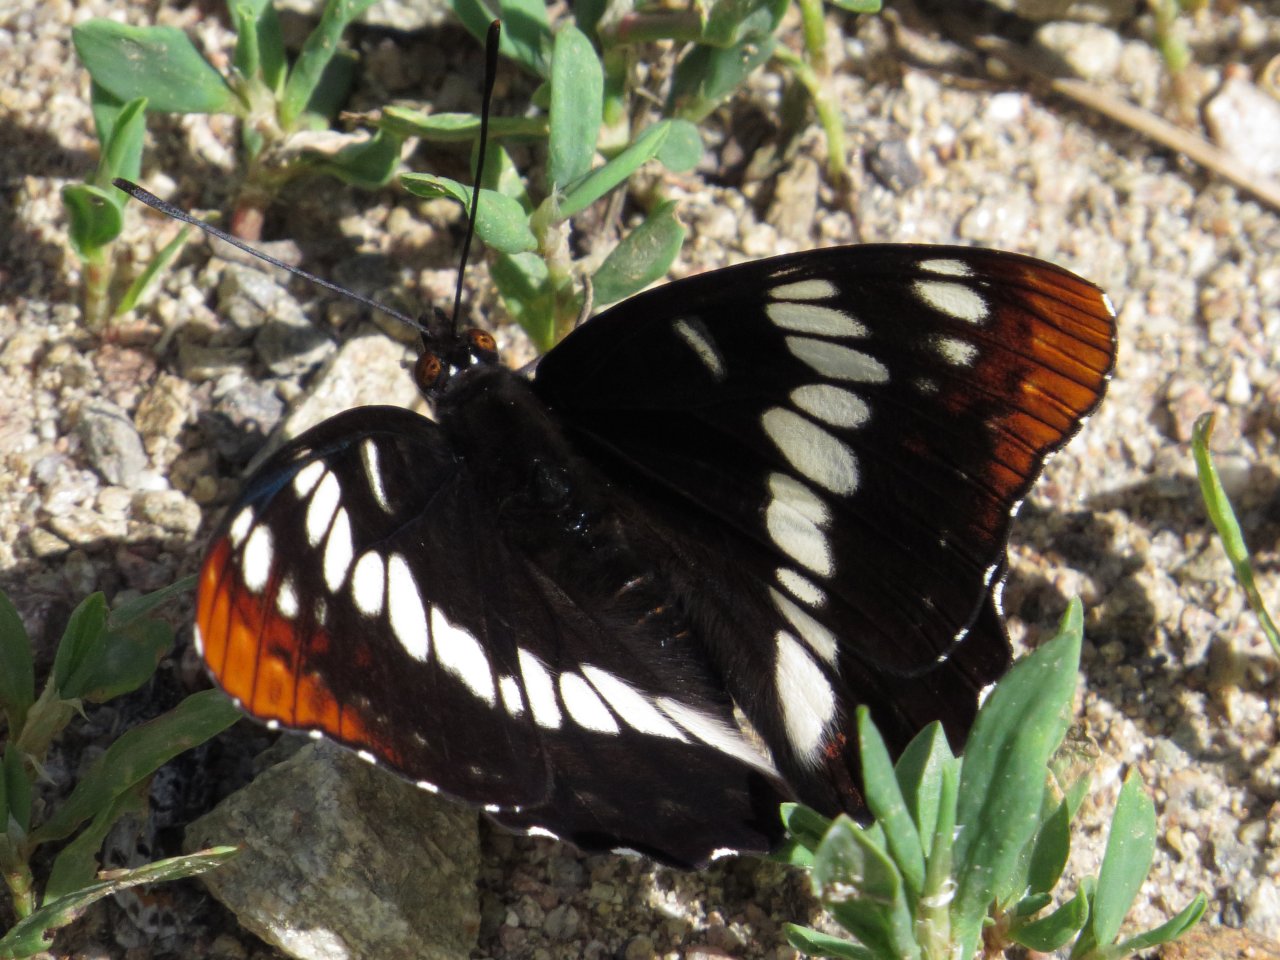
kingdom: Animalia
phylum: Arthropoda
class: Insecta
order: Lepidoptera
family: Nymphalidae
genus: Limenitis
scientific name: Limenitis lorquini
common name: Lorquin's Admiral
